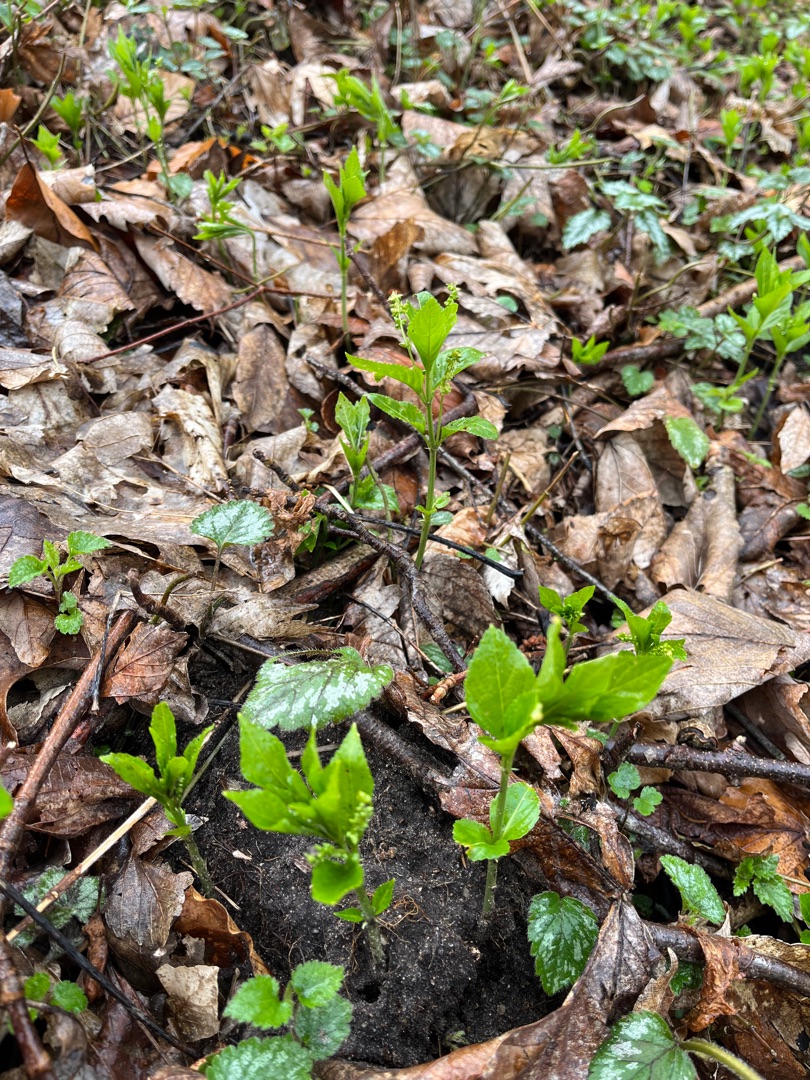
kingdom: Plantae
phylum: Tracheophyta
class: Magnoliopsida
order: Malpighiales
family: Euphorbiaceae
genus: Mercurialis
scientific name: Mercurialis perennis
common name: Almindelig bingelurt
